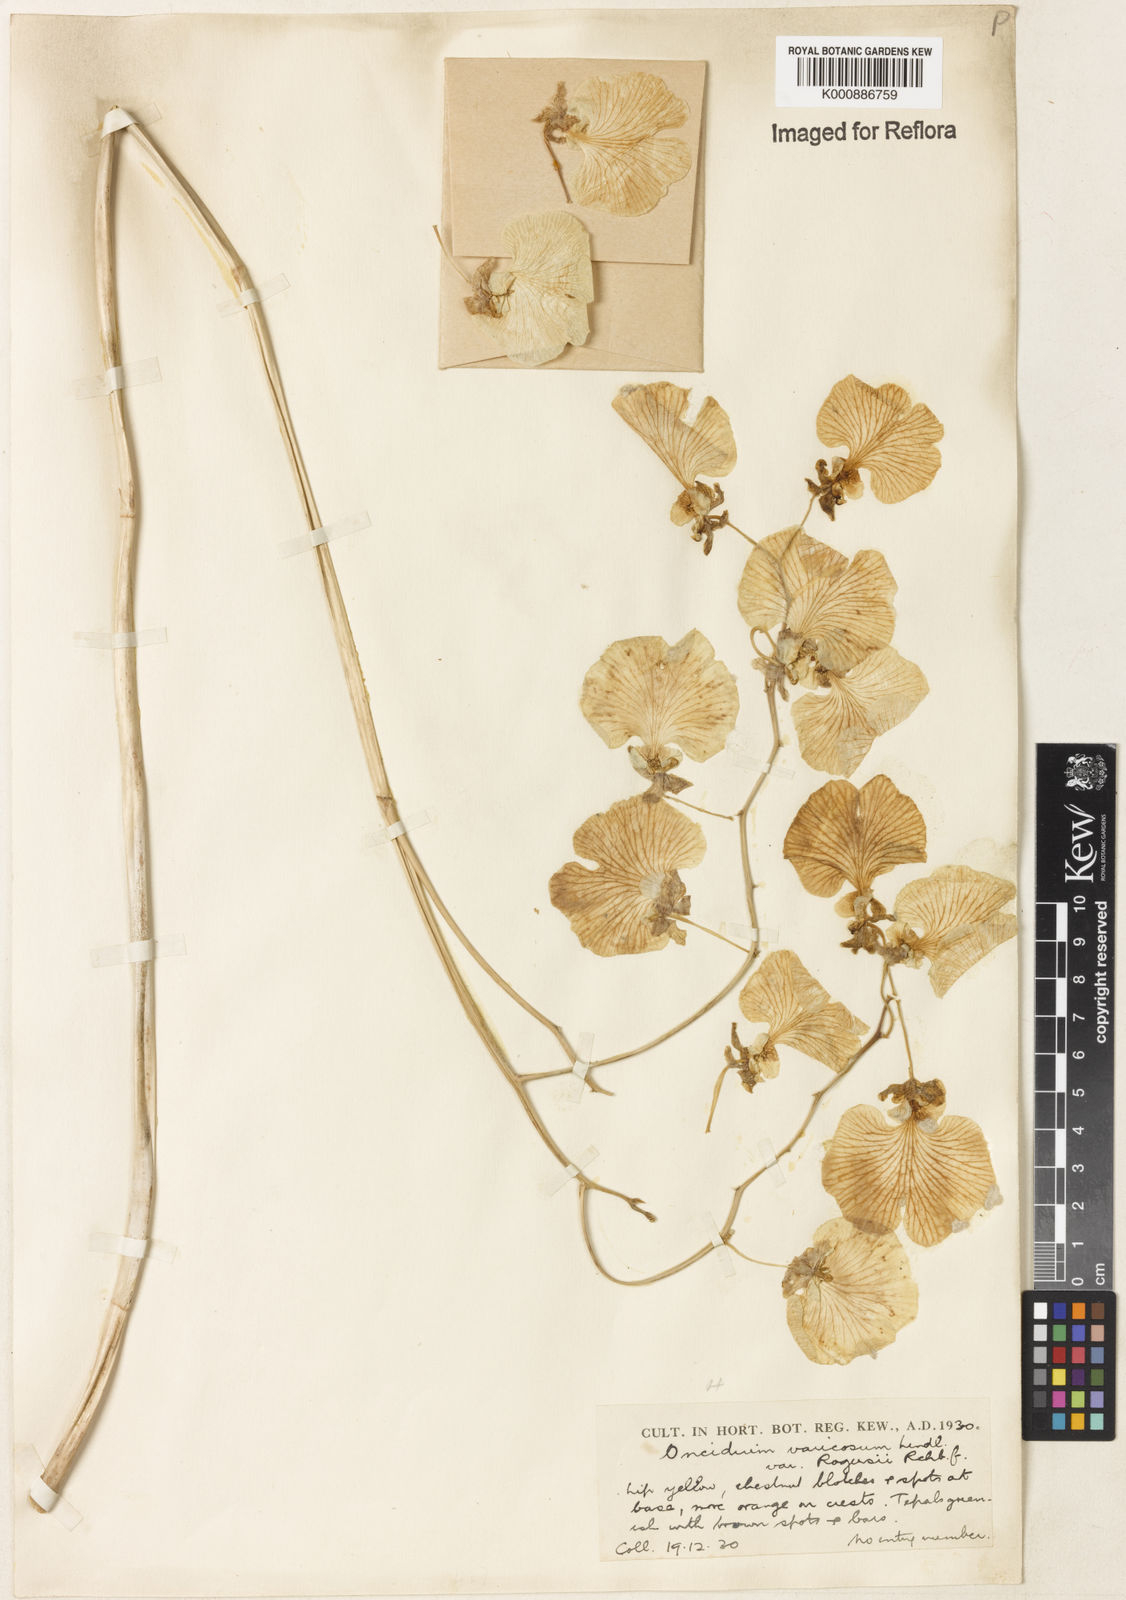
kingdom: Plantae
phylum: Tracheophyta
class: Liliopsida
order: Asparagales
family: Orchidaceae
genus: Gomesa
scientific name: Gomesa varicosa
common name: Dancing ladies
